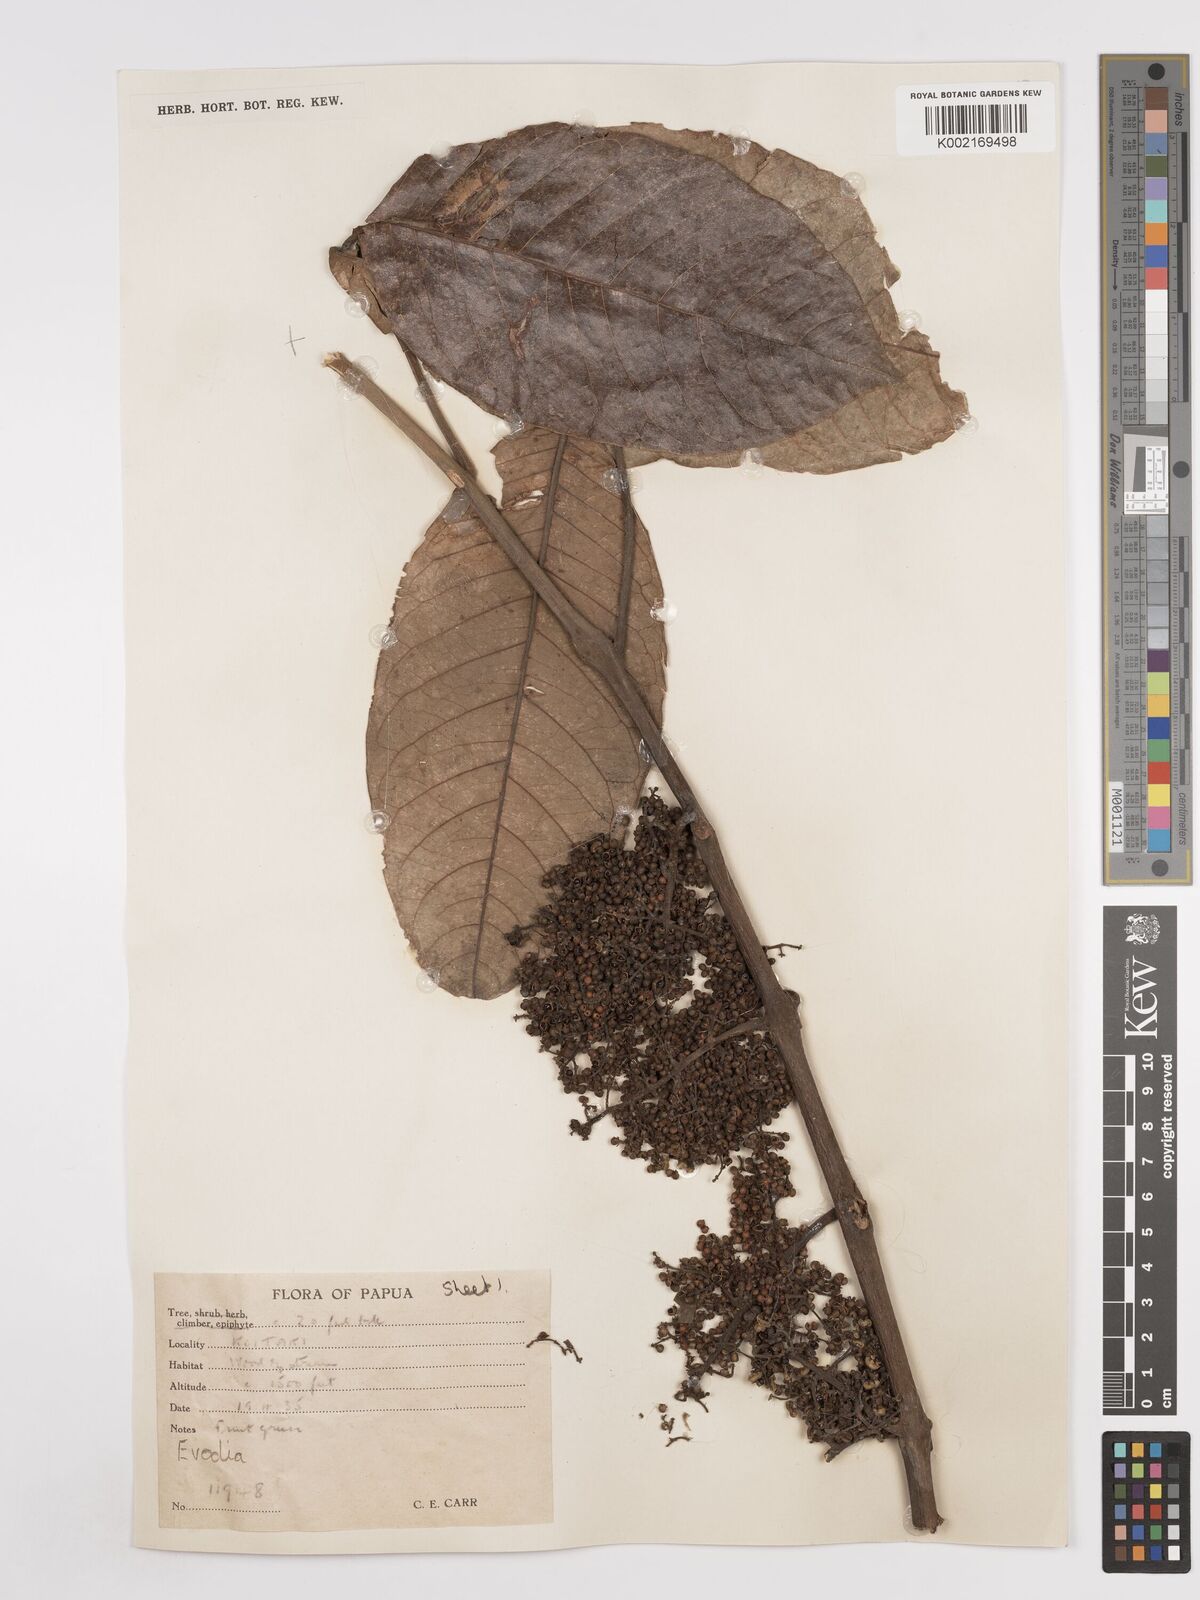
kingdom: Plantae
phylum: Tracheophyta
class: Magnoliopsida
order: Sapindales
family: Rutaceae
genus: Euodia
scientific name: Euodia
